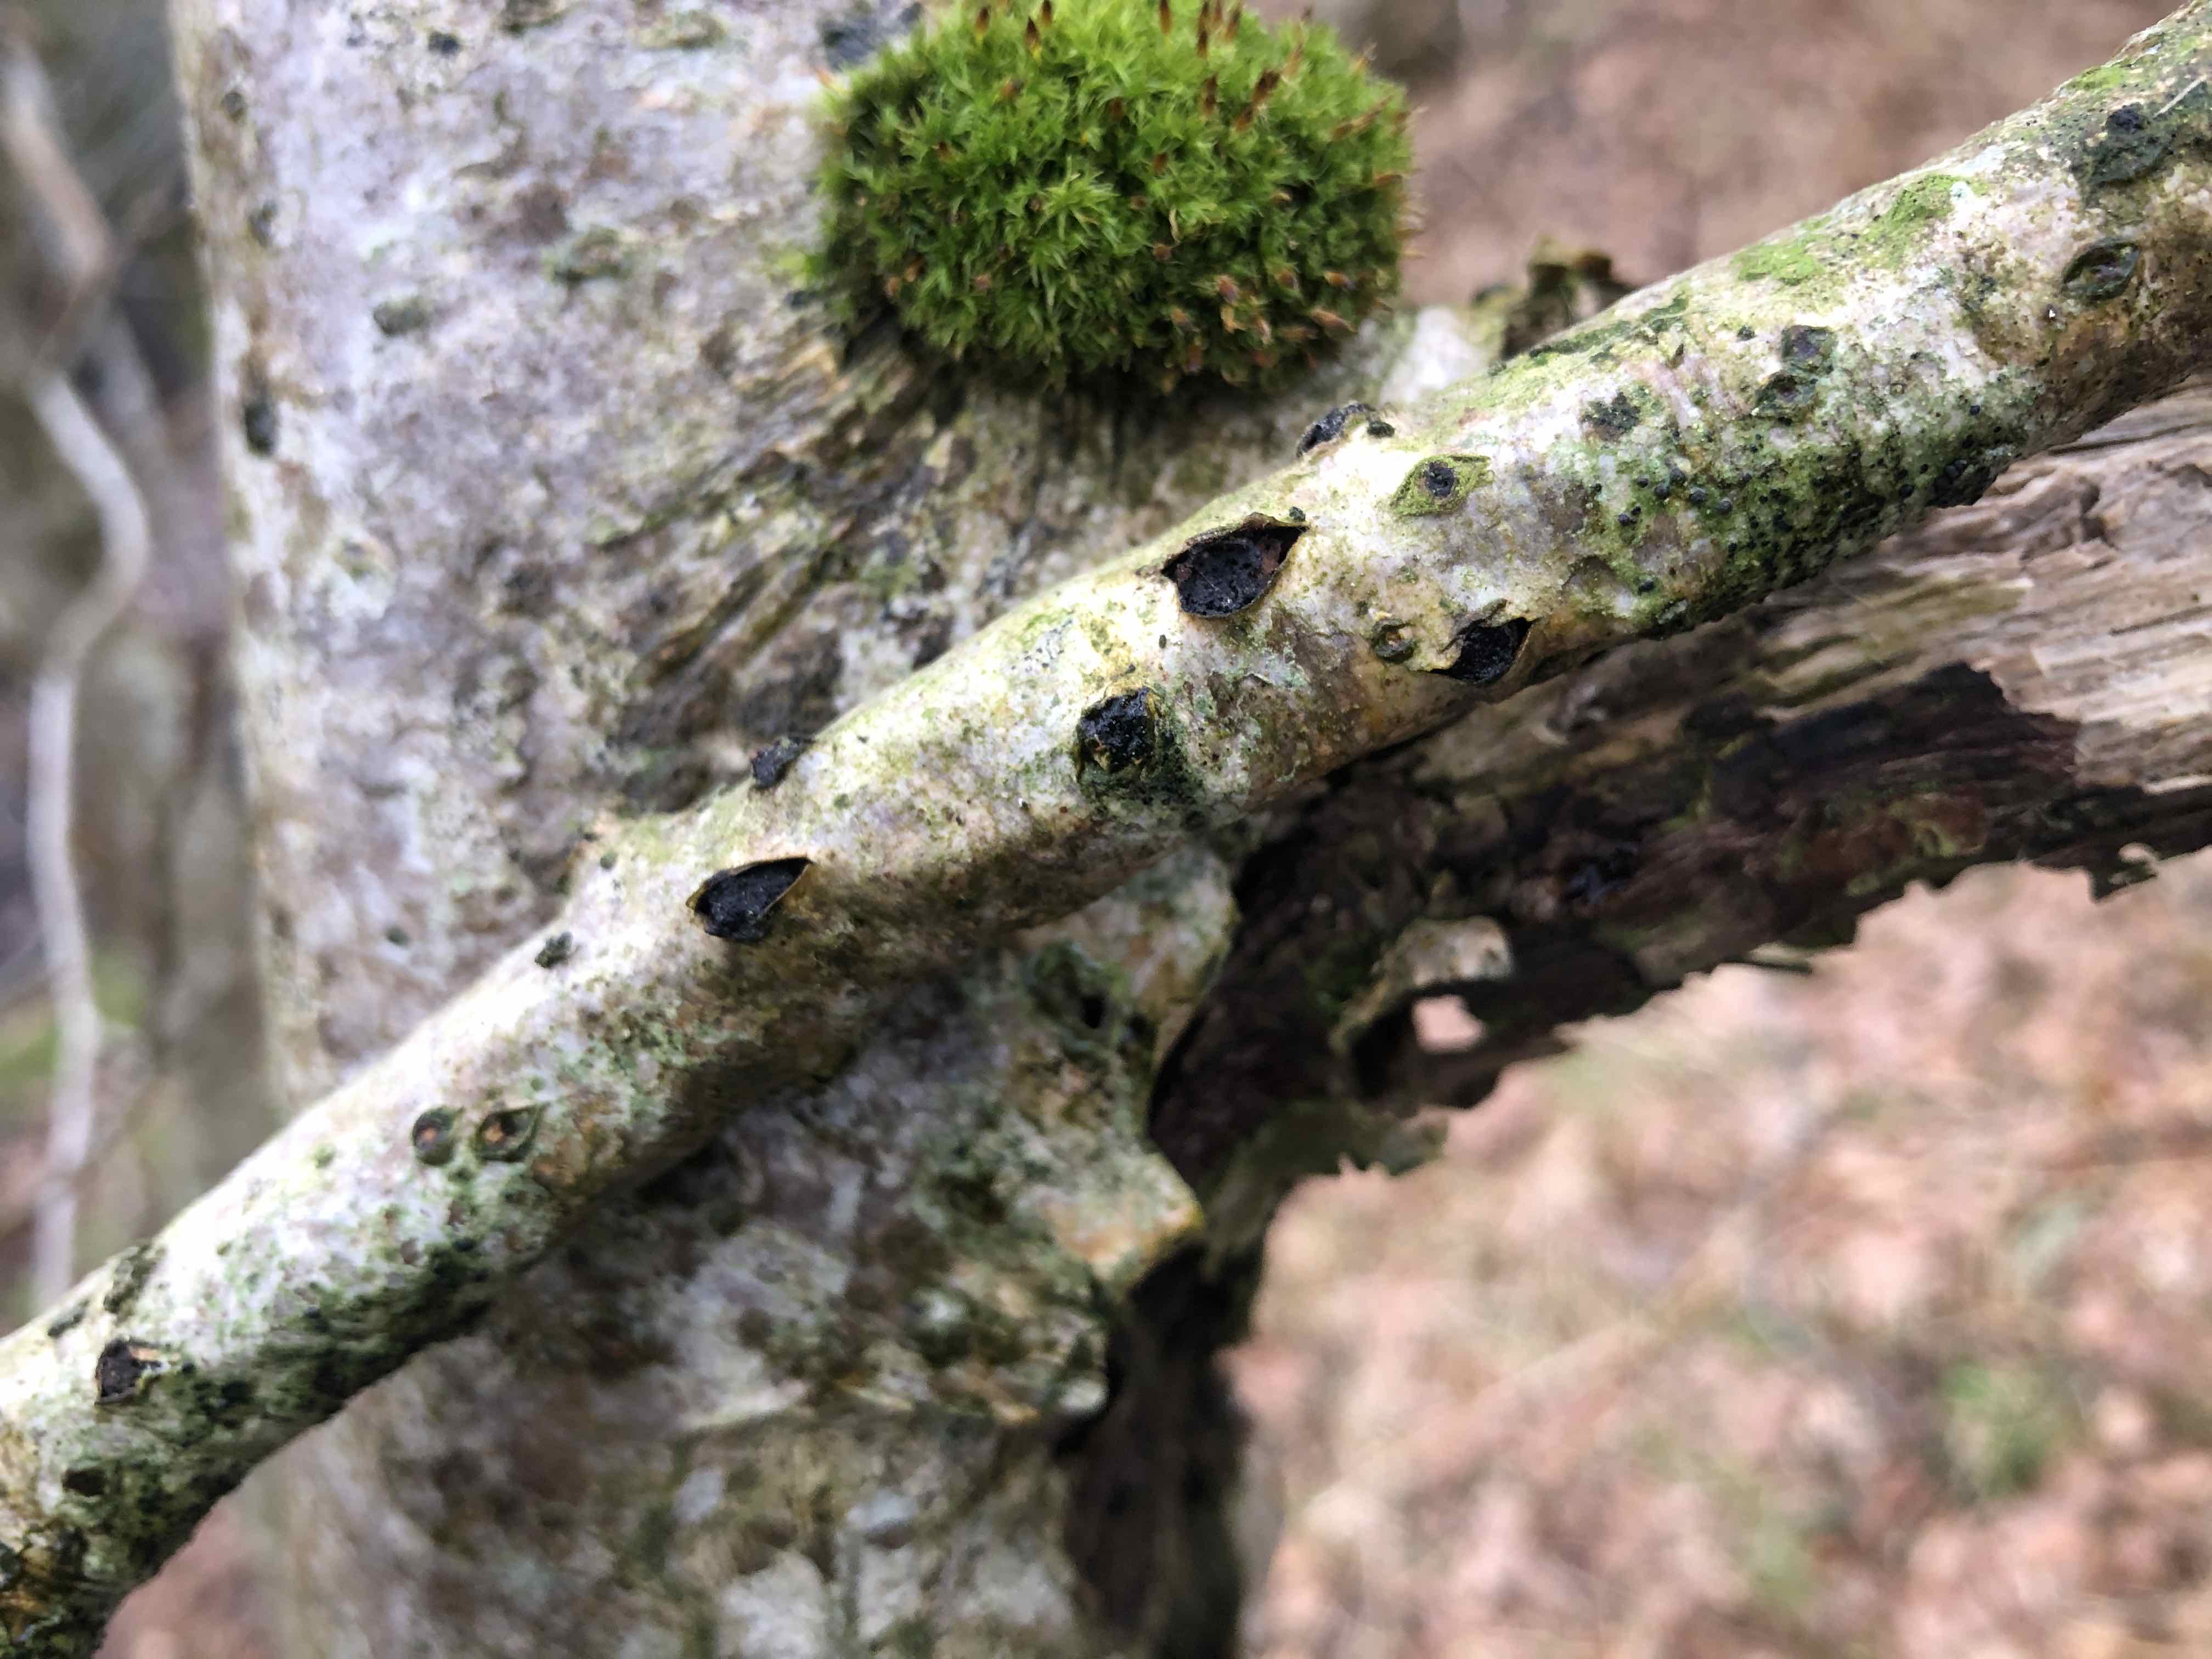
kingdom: Fungi
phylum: Ascomycota
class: Sordariomycetes
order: Xylariales
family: Diatrypaceae
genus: Eutypella
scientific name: Eutypella sorbi
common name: rønne-kulskorpe
